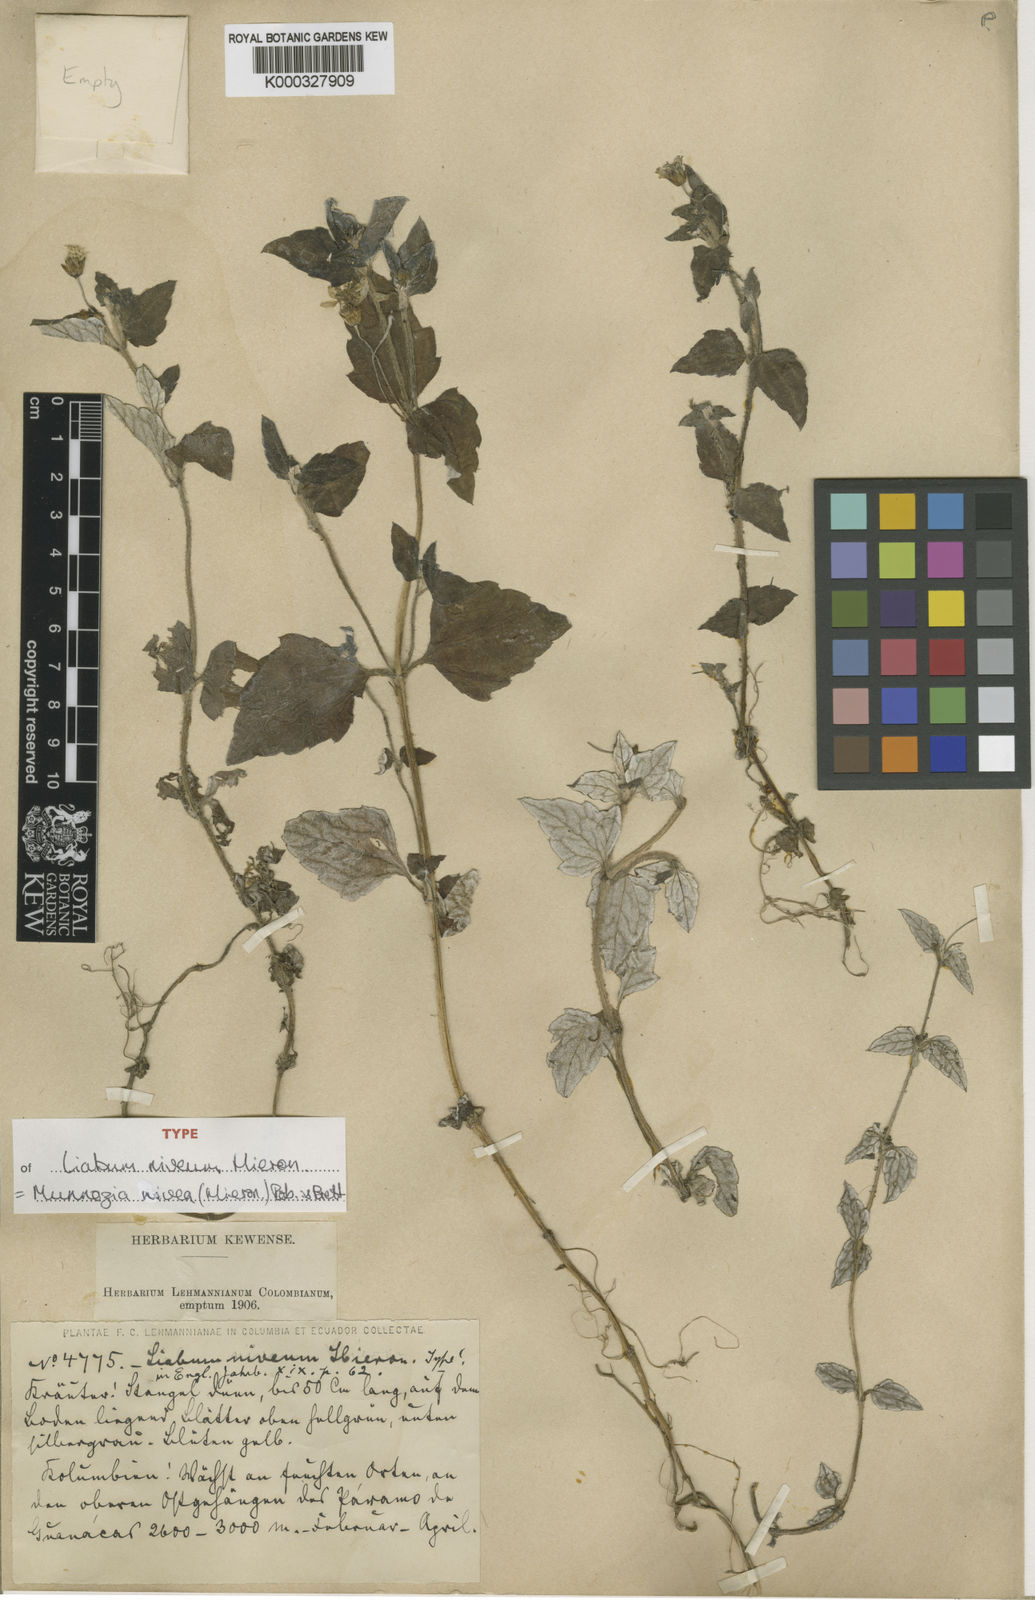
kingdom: Plantae
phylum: Tracheophyta
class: Magnoliopsida
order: Asterales
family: Asteraceae
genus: Munnozia
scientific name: Munnozia nivea
